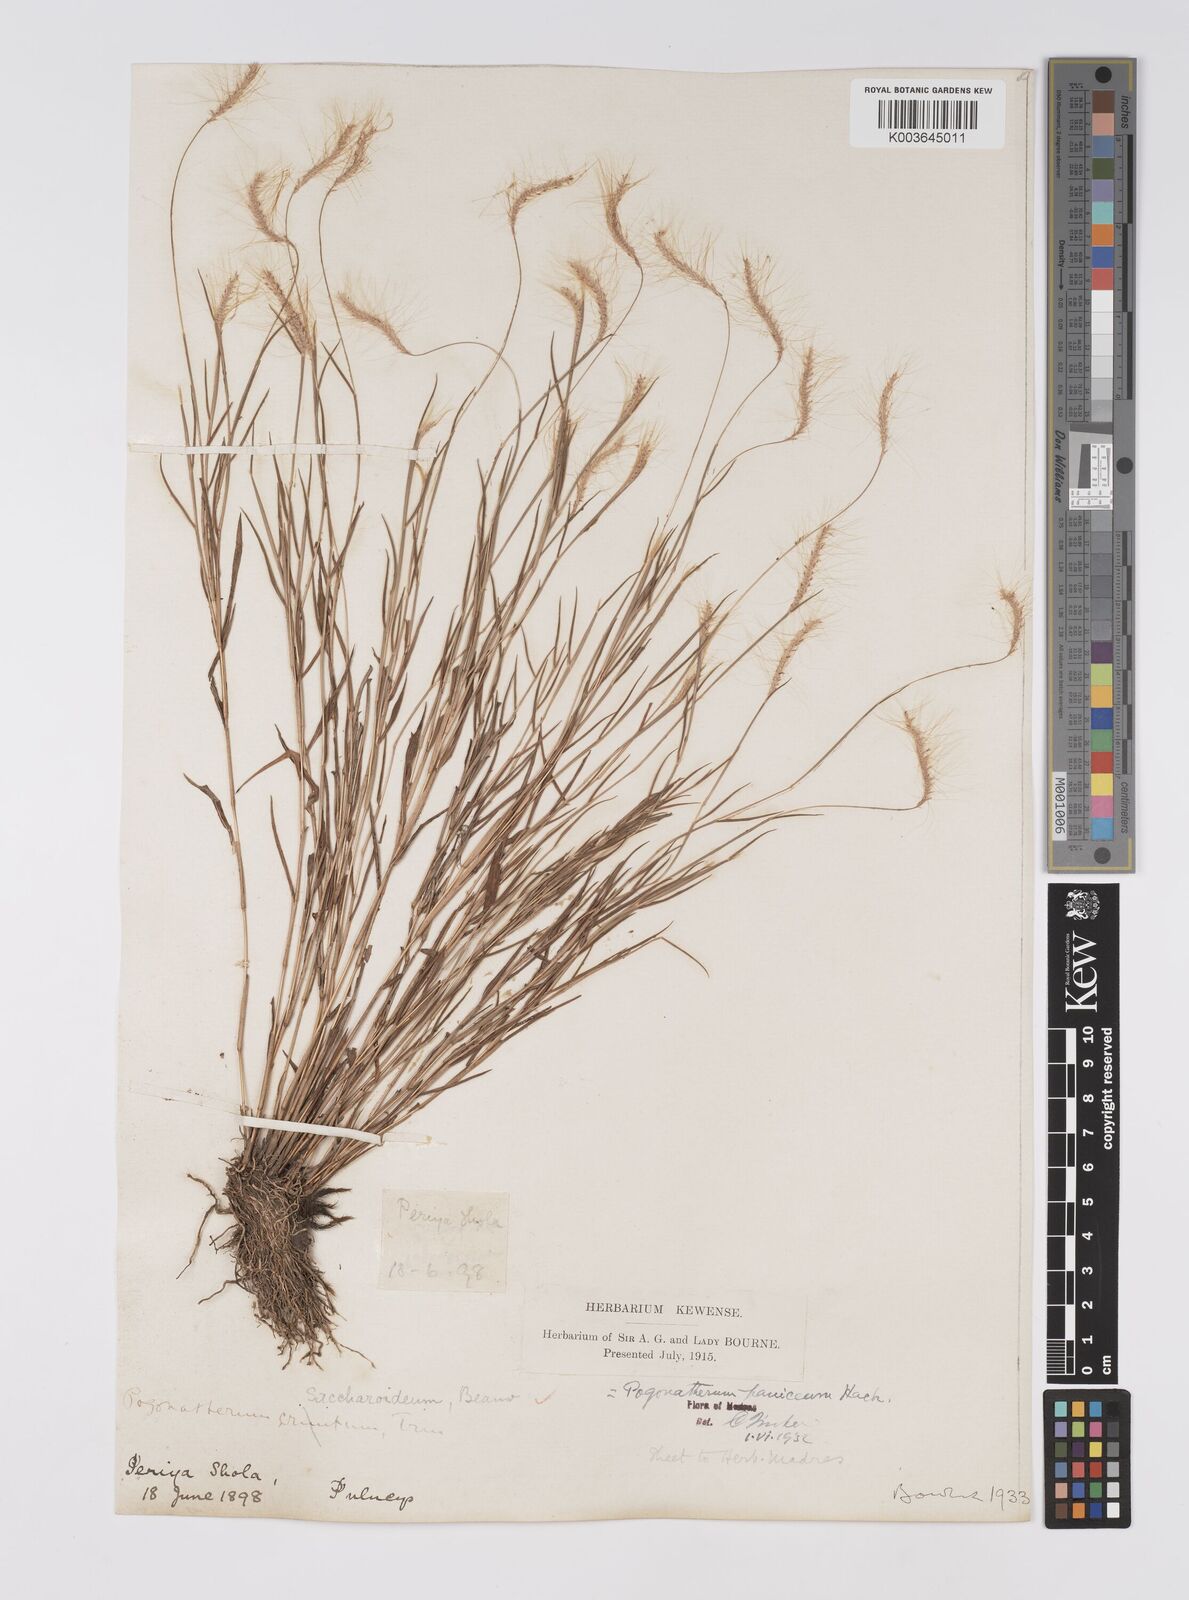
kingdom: Plantae
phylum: Tracheophyta
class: Liliopsida
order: Poales
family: Poaceae
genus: Pogonatherum
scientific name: Pogonatherum crinitum
